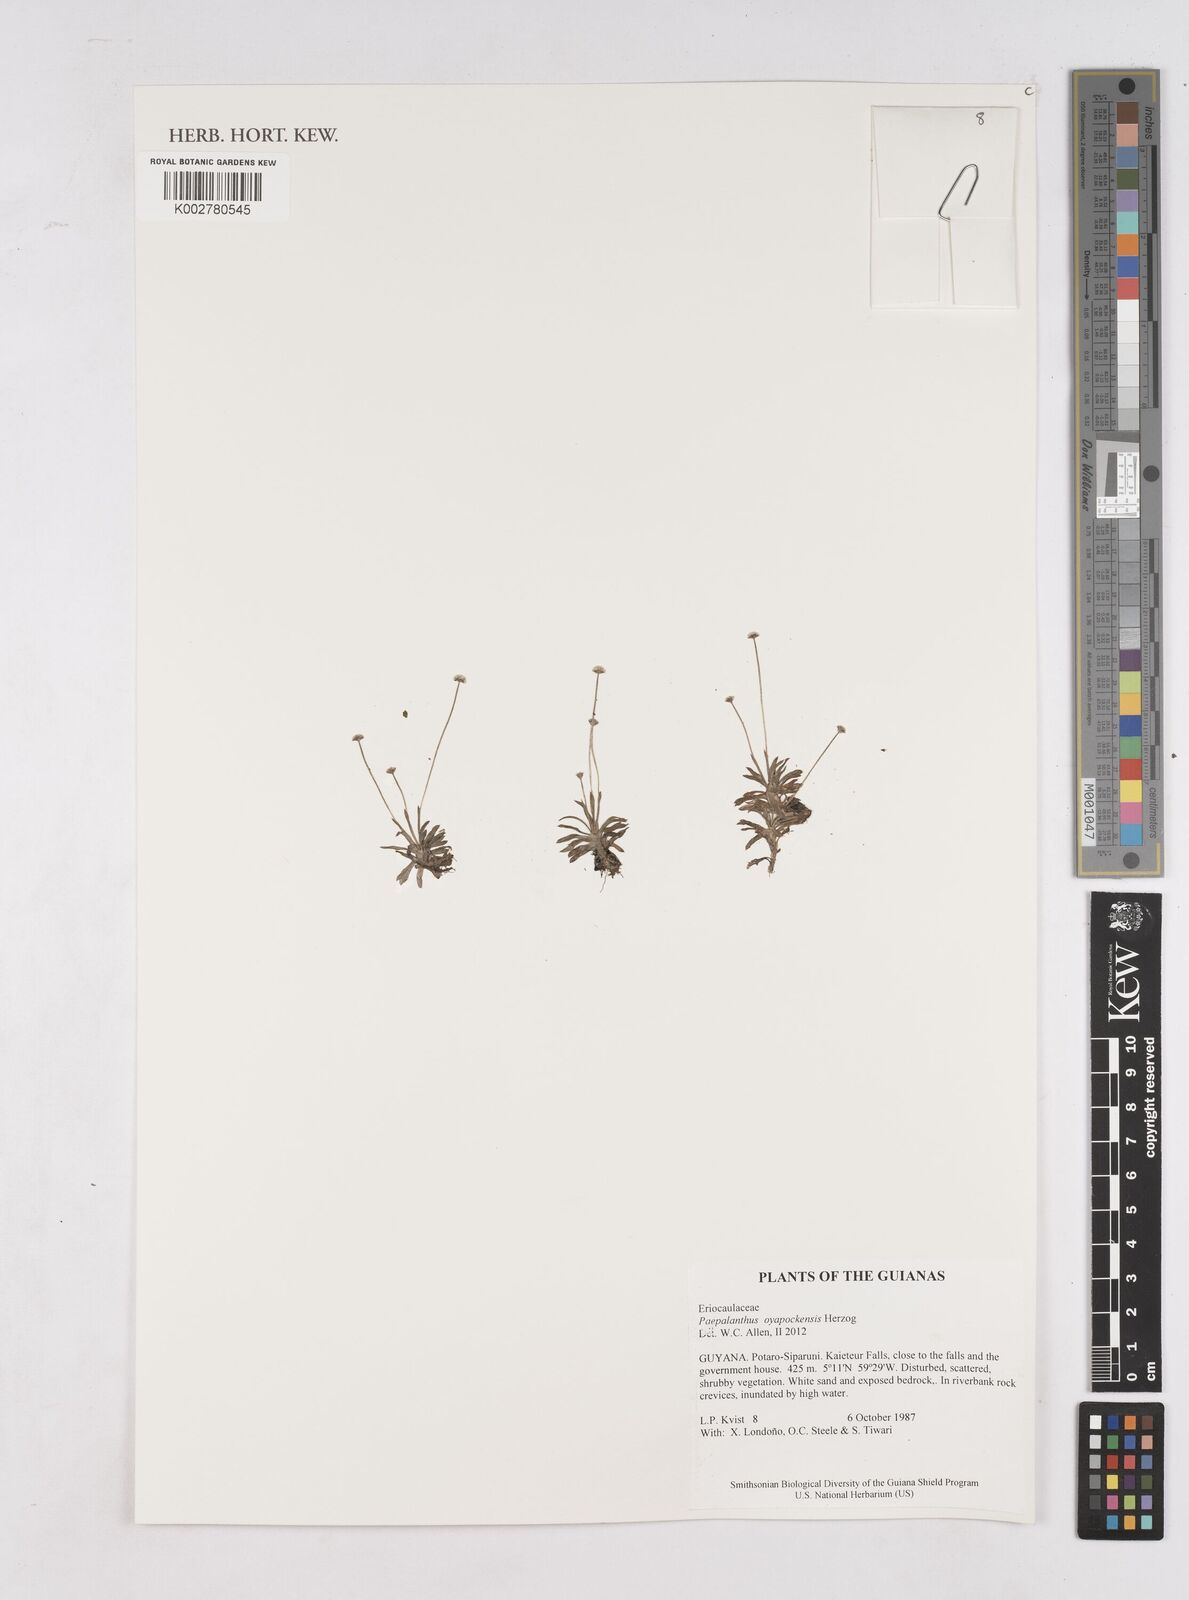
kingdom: Plantae
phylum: Tracheophyta
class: Liliopsida
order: Poales
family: Eriocaulaceae
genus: Paepalanthus
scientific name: Paepalanthus oyapockensis
